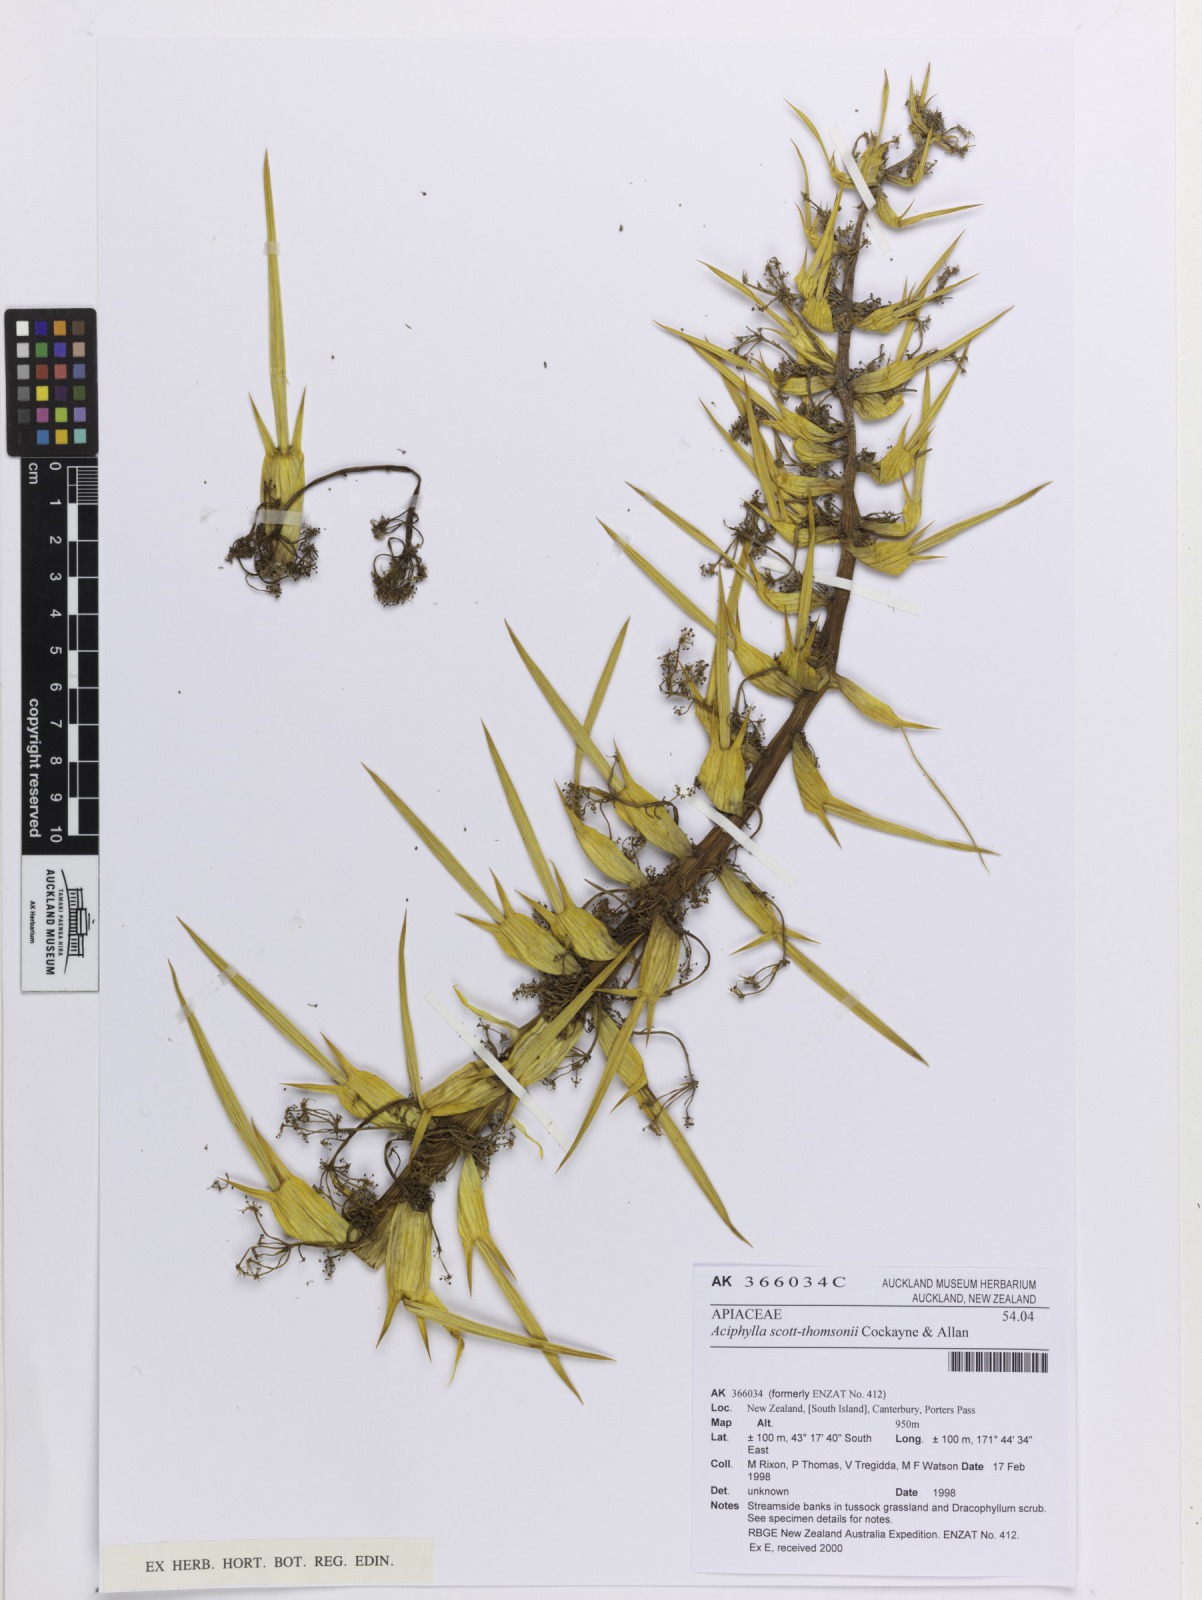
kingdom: Plantae
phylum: Tracheophyta
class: Magnoliopsida
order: Apiales
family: Apiaceae
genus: Aciphylla
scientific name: Aciphylla scott-thomsonii
